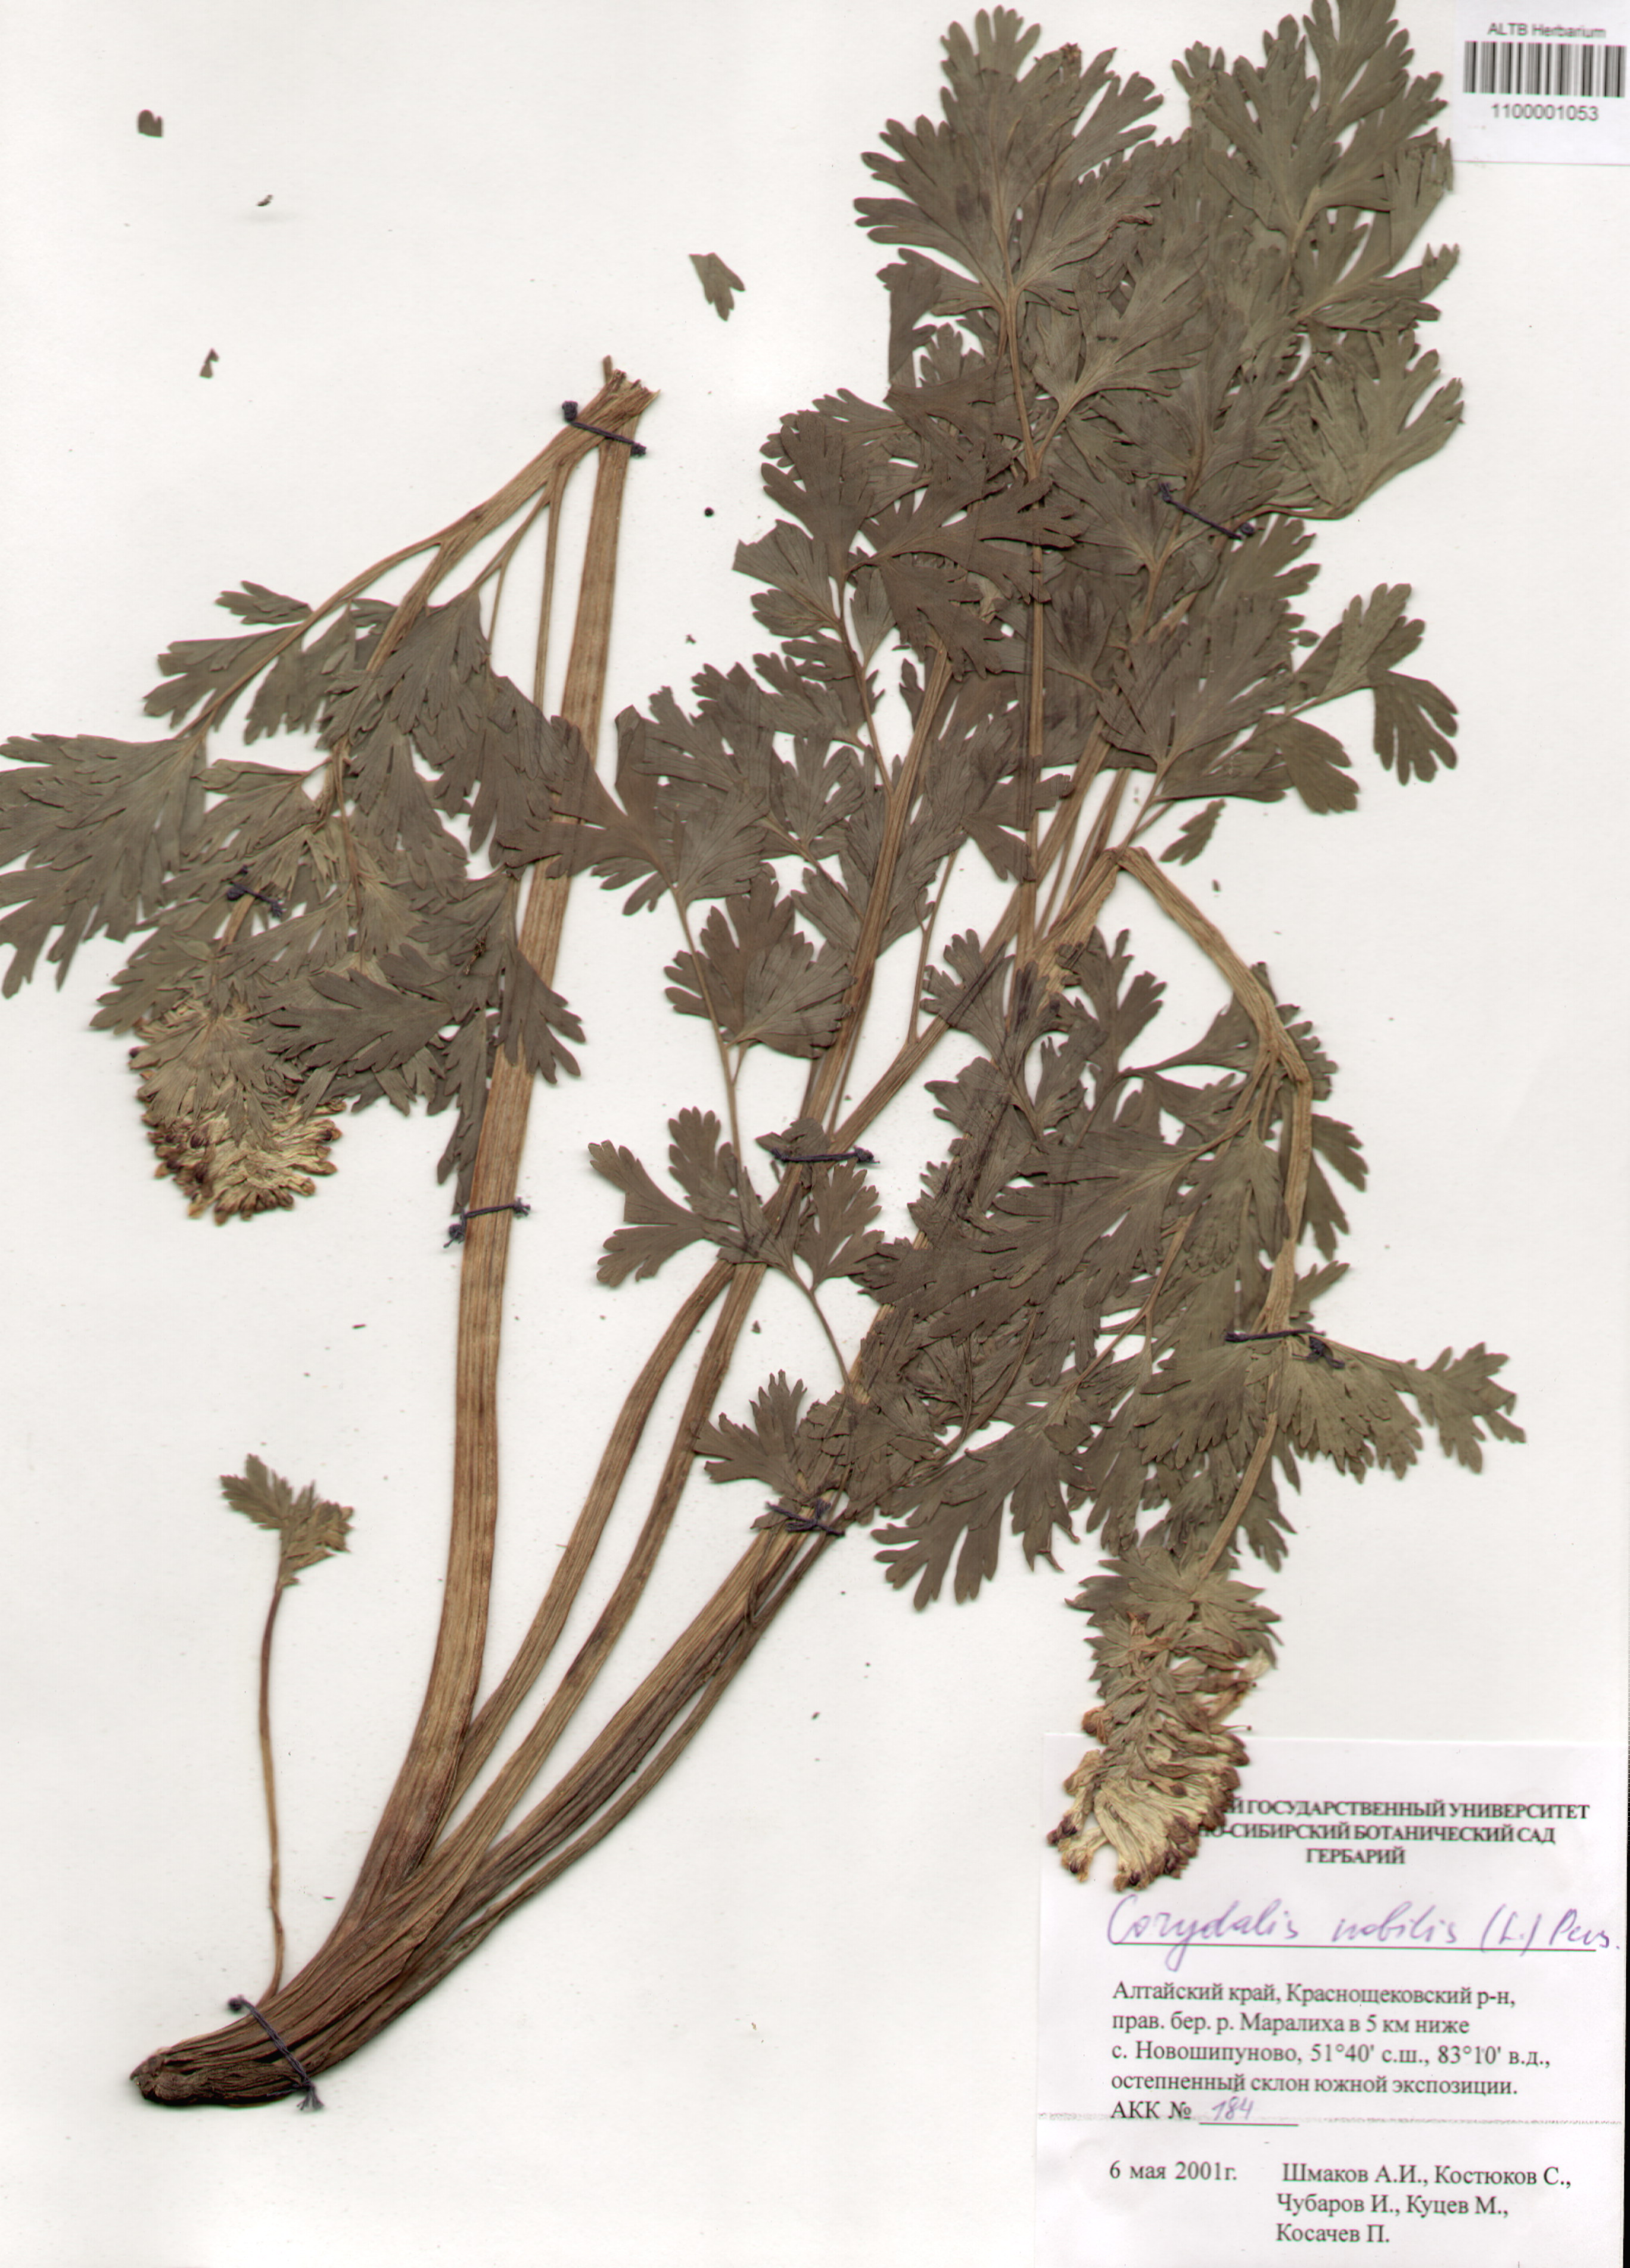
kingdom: Plantae
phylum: Tracheophyta
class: Magnoliopsida
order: Ranunculales
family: Papaveraceae
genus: Corydalis
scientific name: Corydalis nobilis
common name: Siberian corydalis
